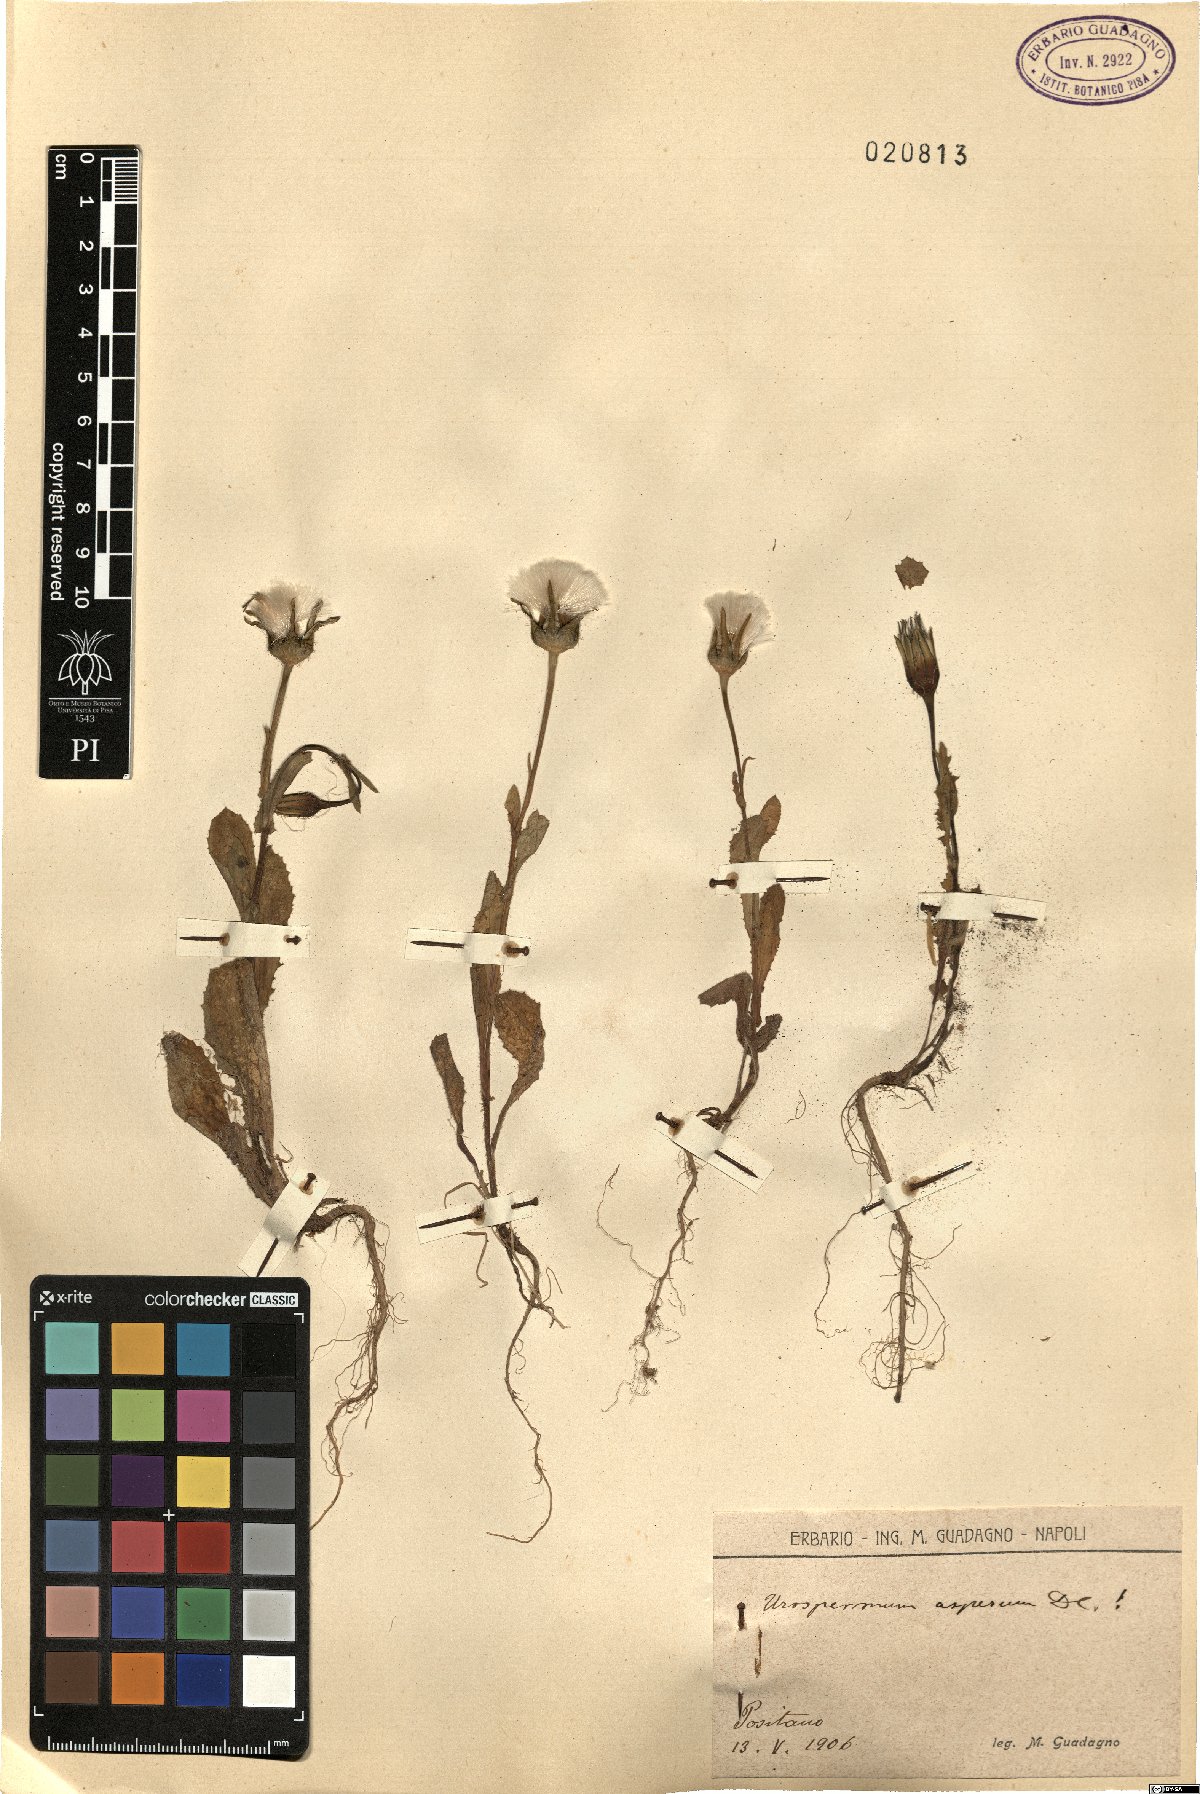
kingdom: Plantae
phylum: Tracheophyta
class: Magnoliopsida
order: Asterales
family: Asteraceae
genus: Urospermum
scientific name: Urospermum picroides
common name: False hawkbit
